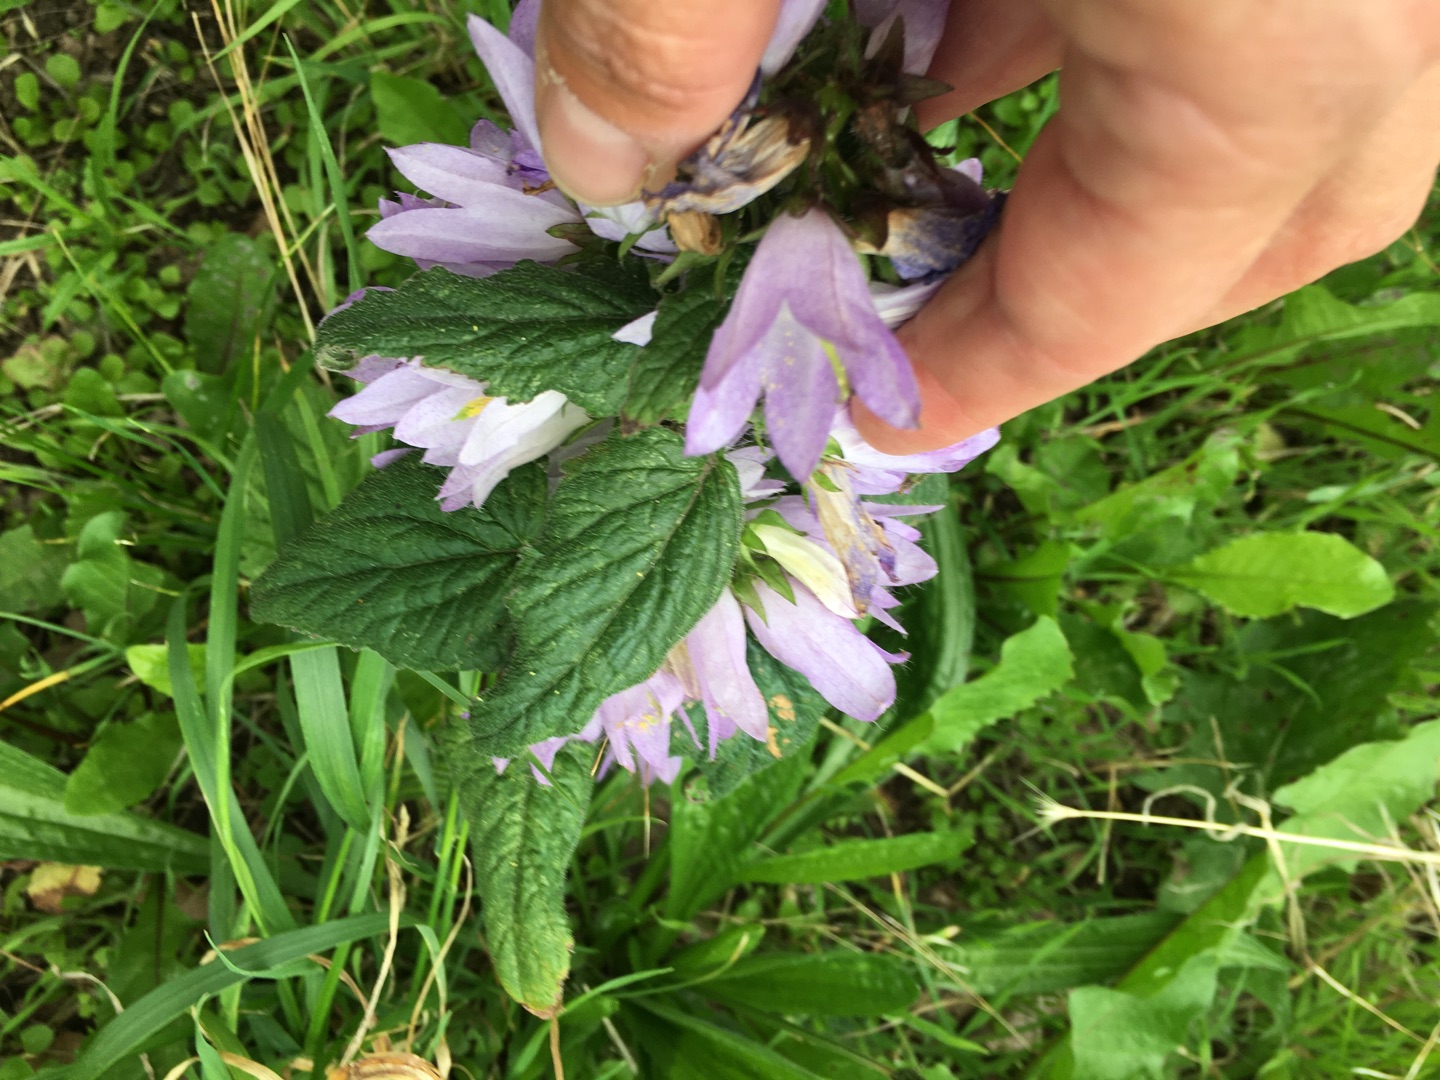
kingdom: Plantae
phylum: Tracheophyta
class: Magnoliopsida
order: Asterales
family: Campanulaceae
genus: Campanula
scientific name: Campanula trachelium
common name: Nælde-klokke
